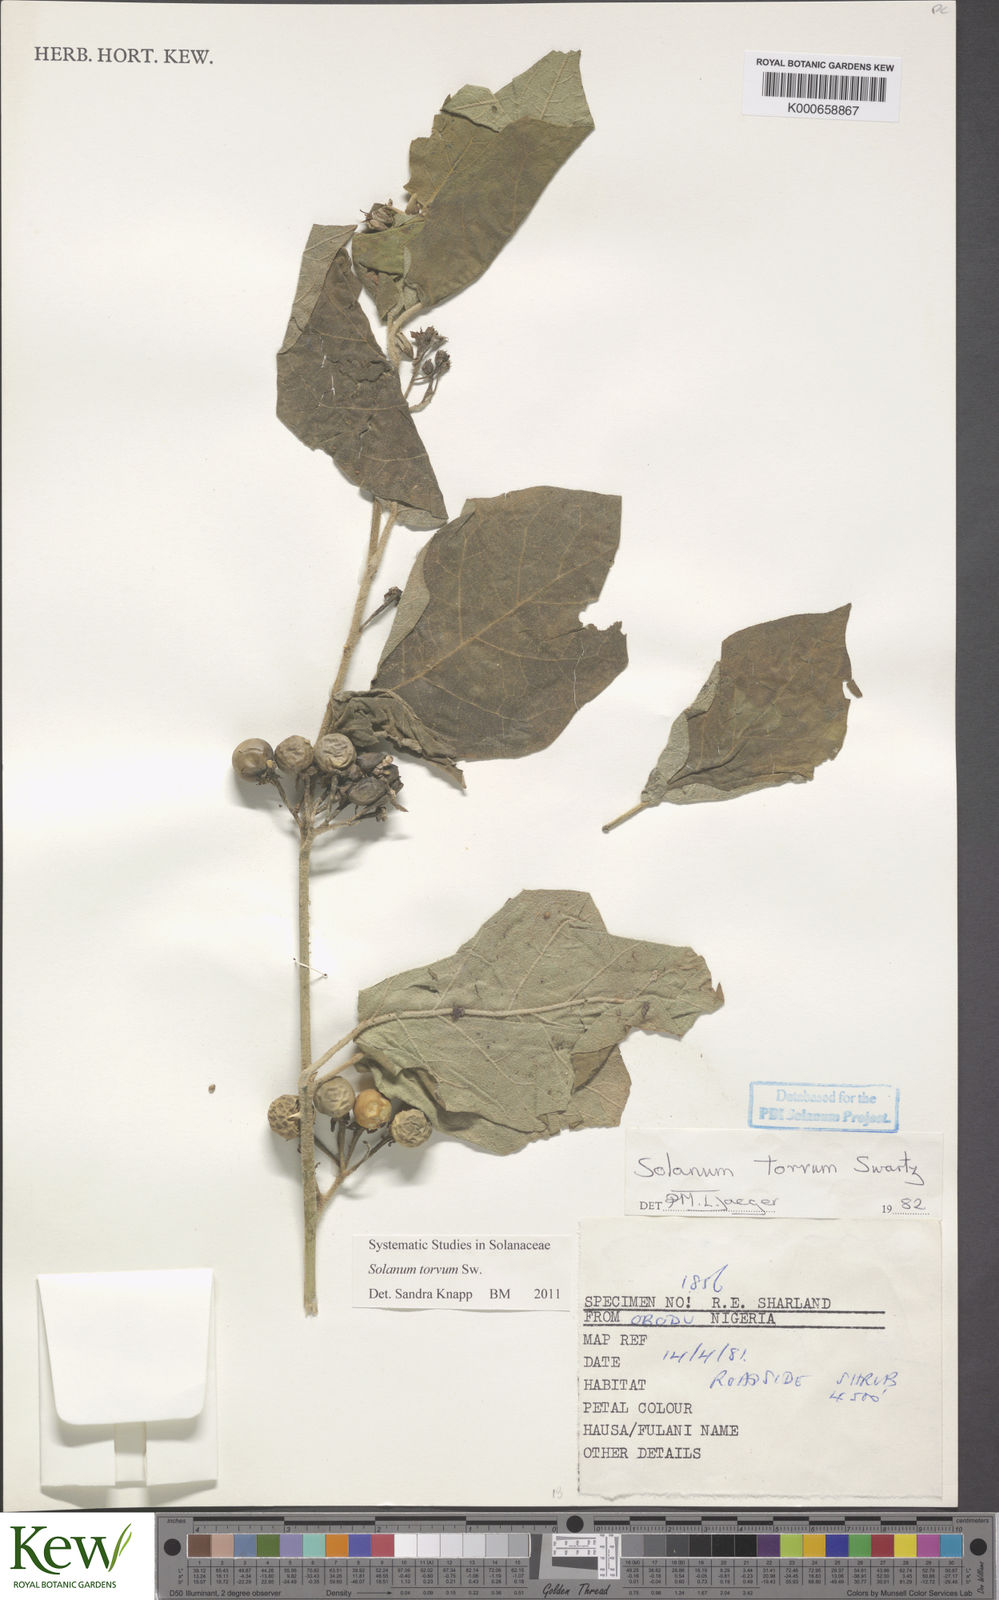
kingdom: Plantae
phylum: Tracheophyta
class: Magnoliopsida
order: Solanales
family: Solanaceae
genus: Solanum
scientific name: Solanum torvum
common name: Turkey berry
